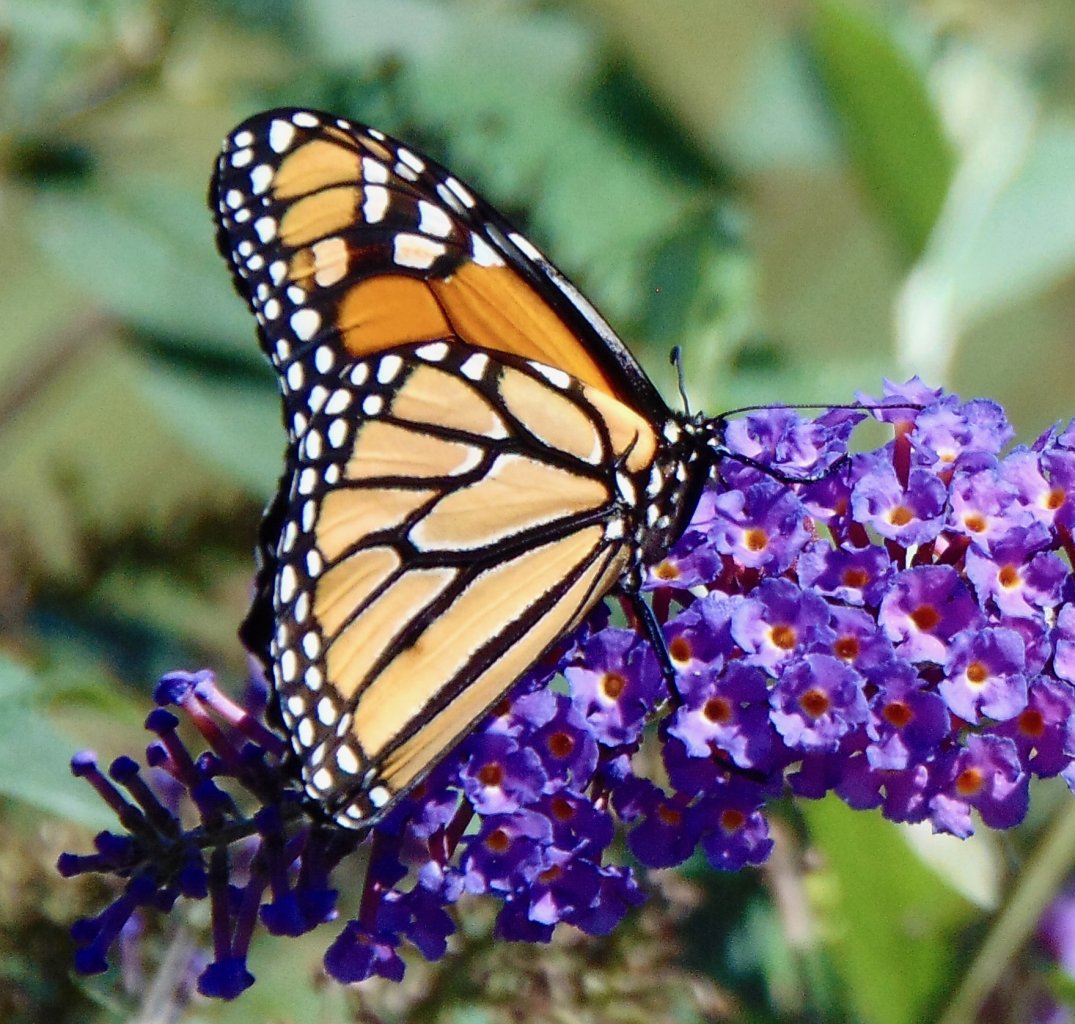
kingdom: Animalia
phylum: Arthropoda
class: Insecta
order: Lepidoptera
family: Nymphalidae
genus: Danaus
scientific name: Danaus plexippus
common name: Monarch
